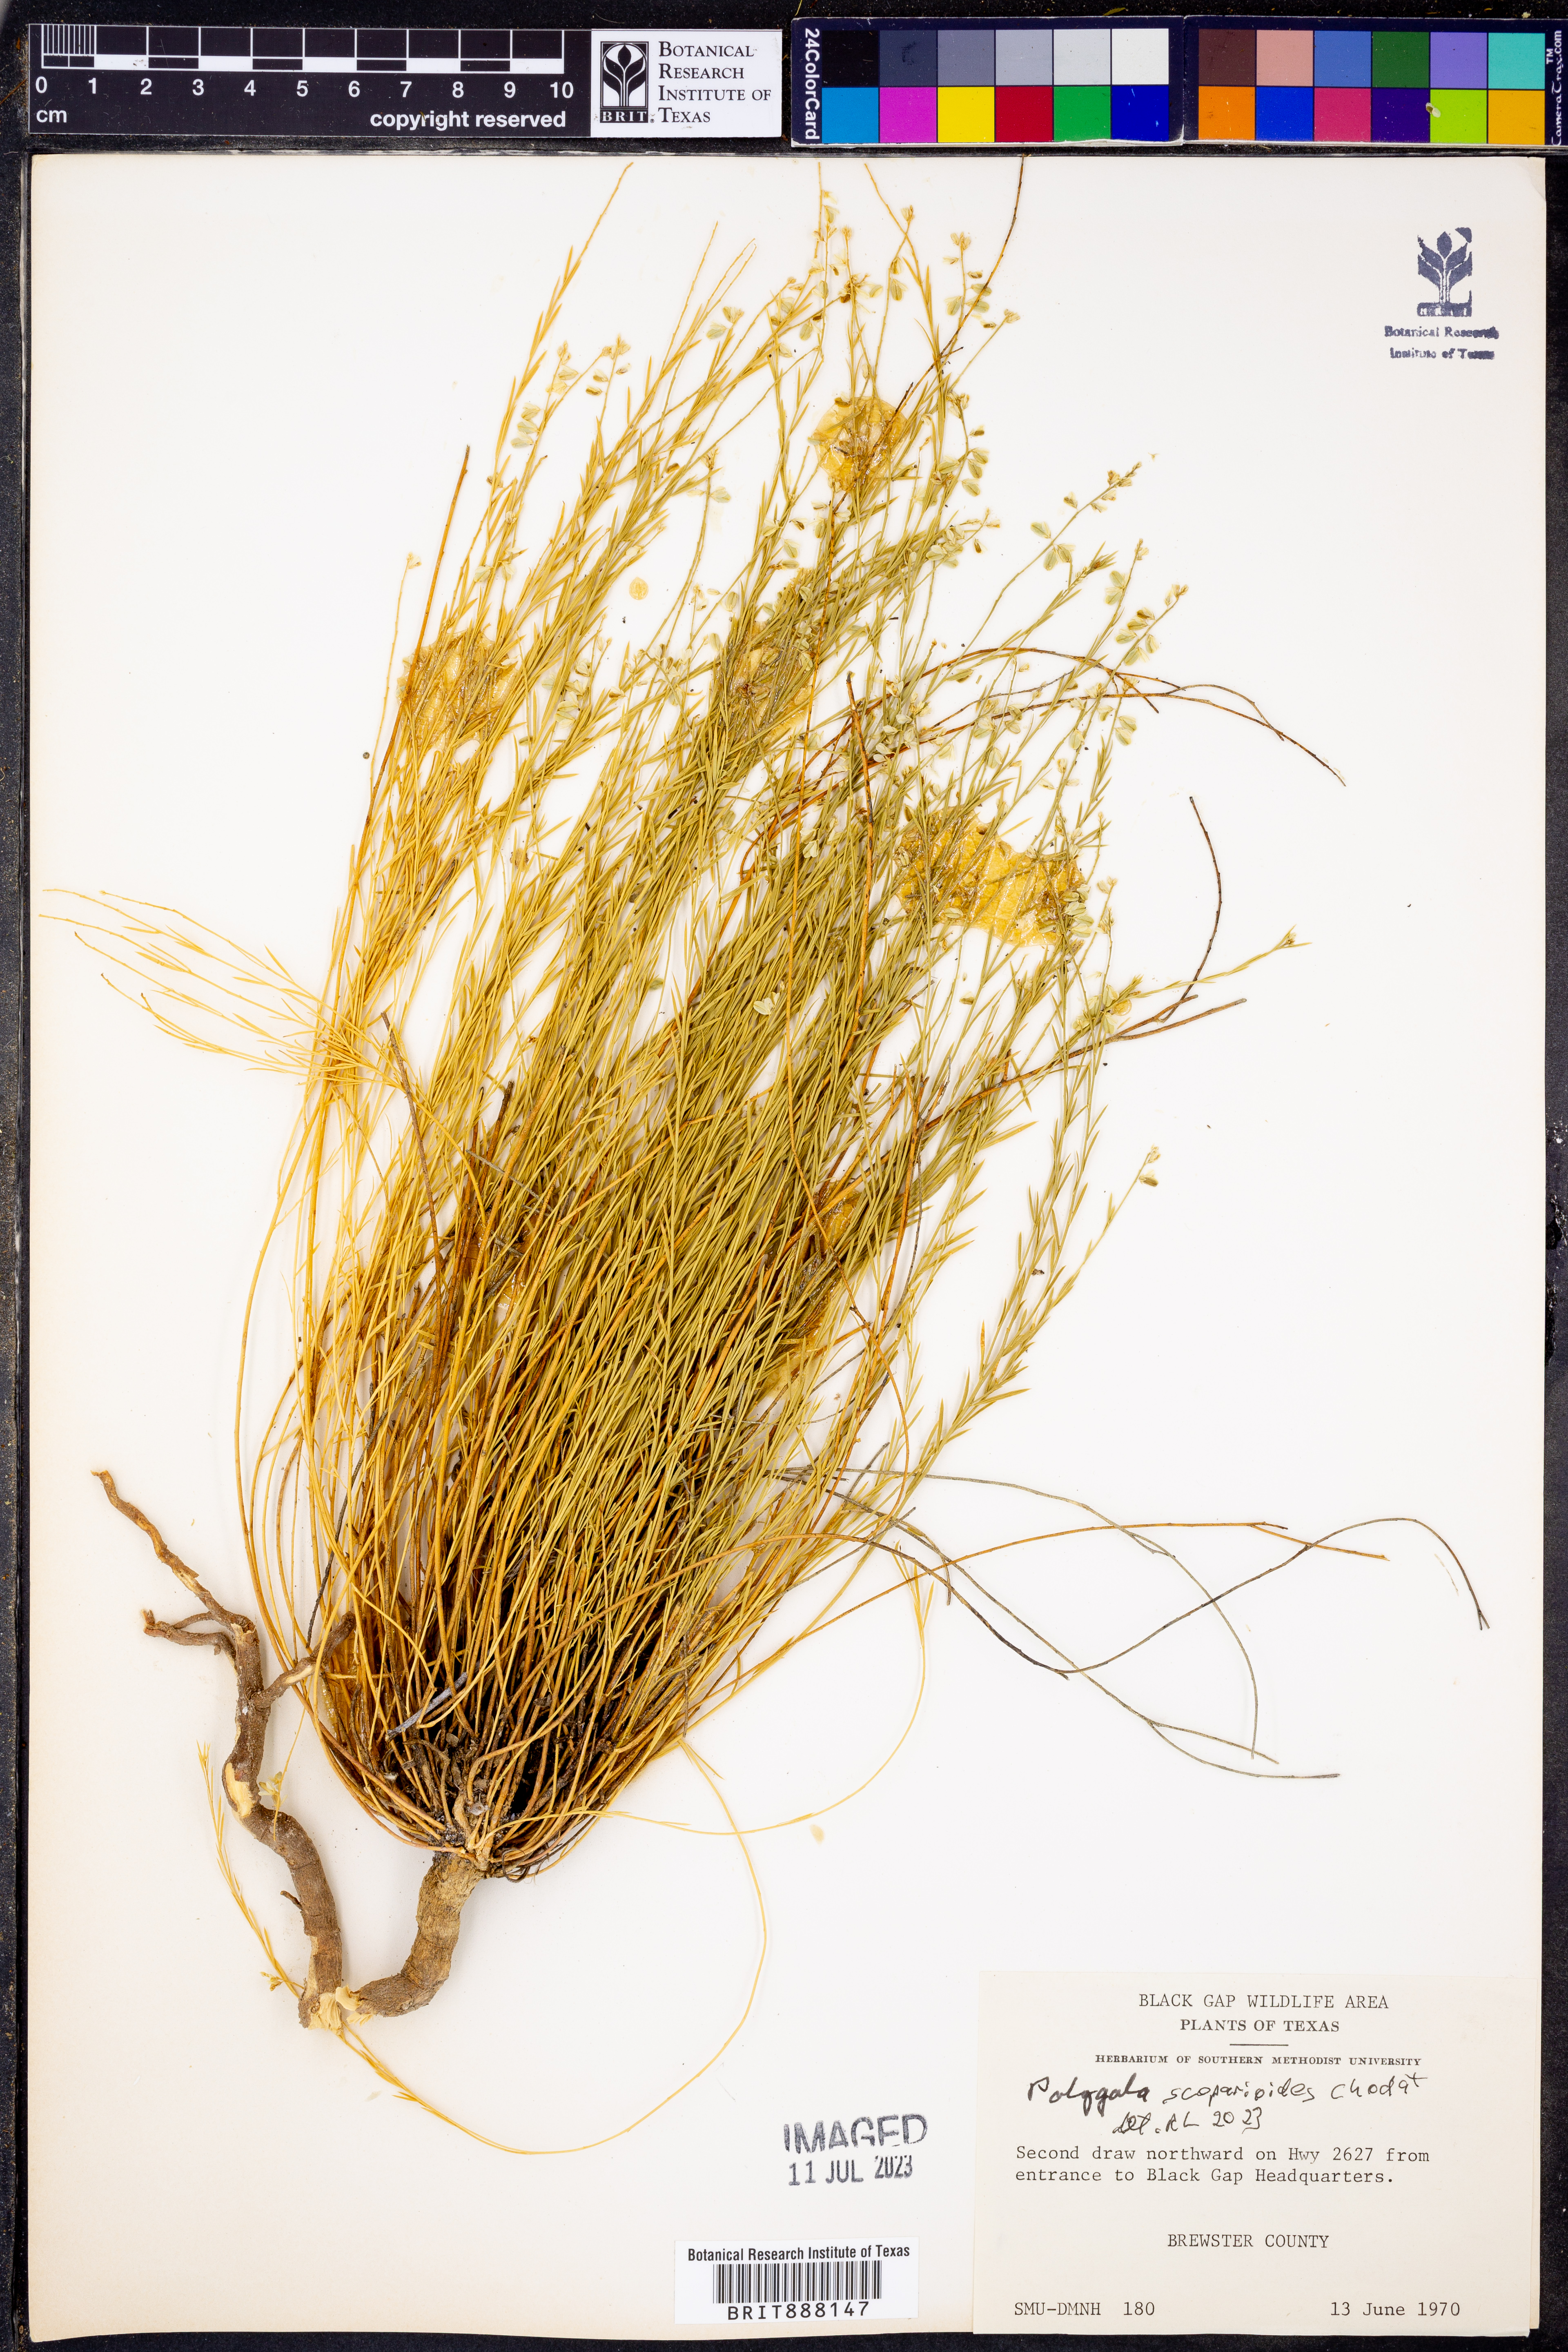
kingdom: Plantae
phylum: Tracheophyta
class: Magnoliopsida
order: Fabales
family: Polygalaceae
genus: Polygala
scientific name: Polygala scoparioides
